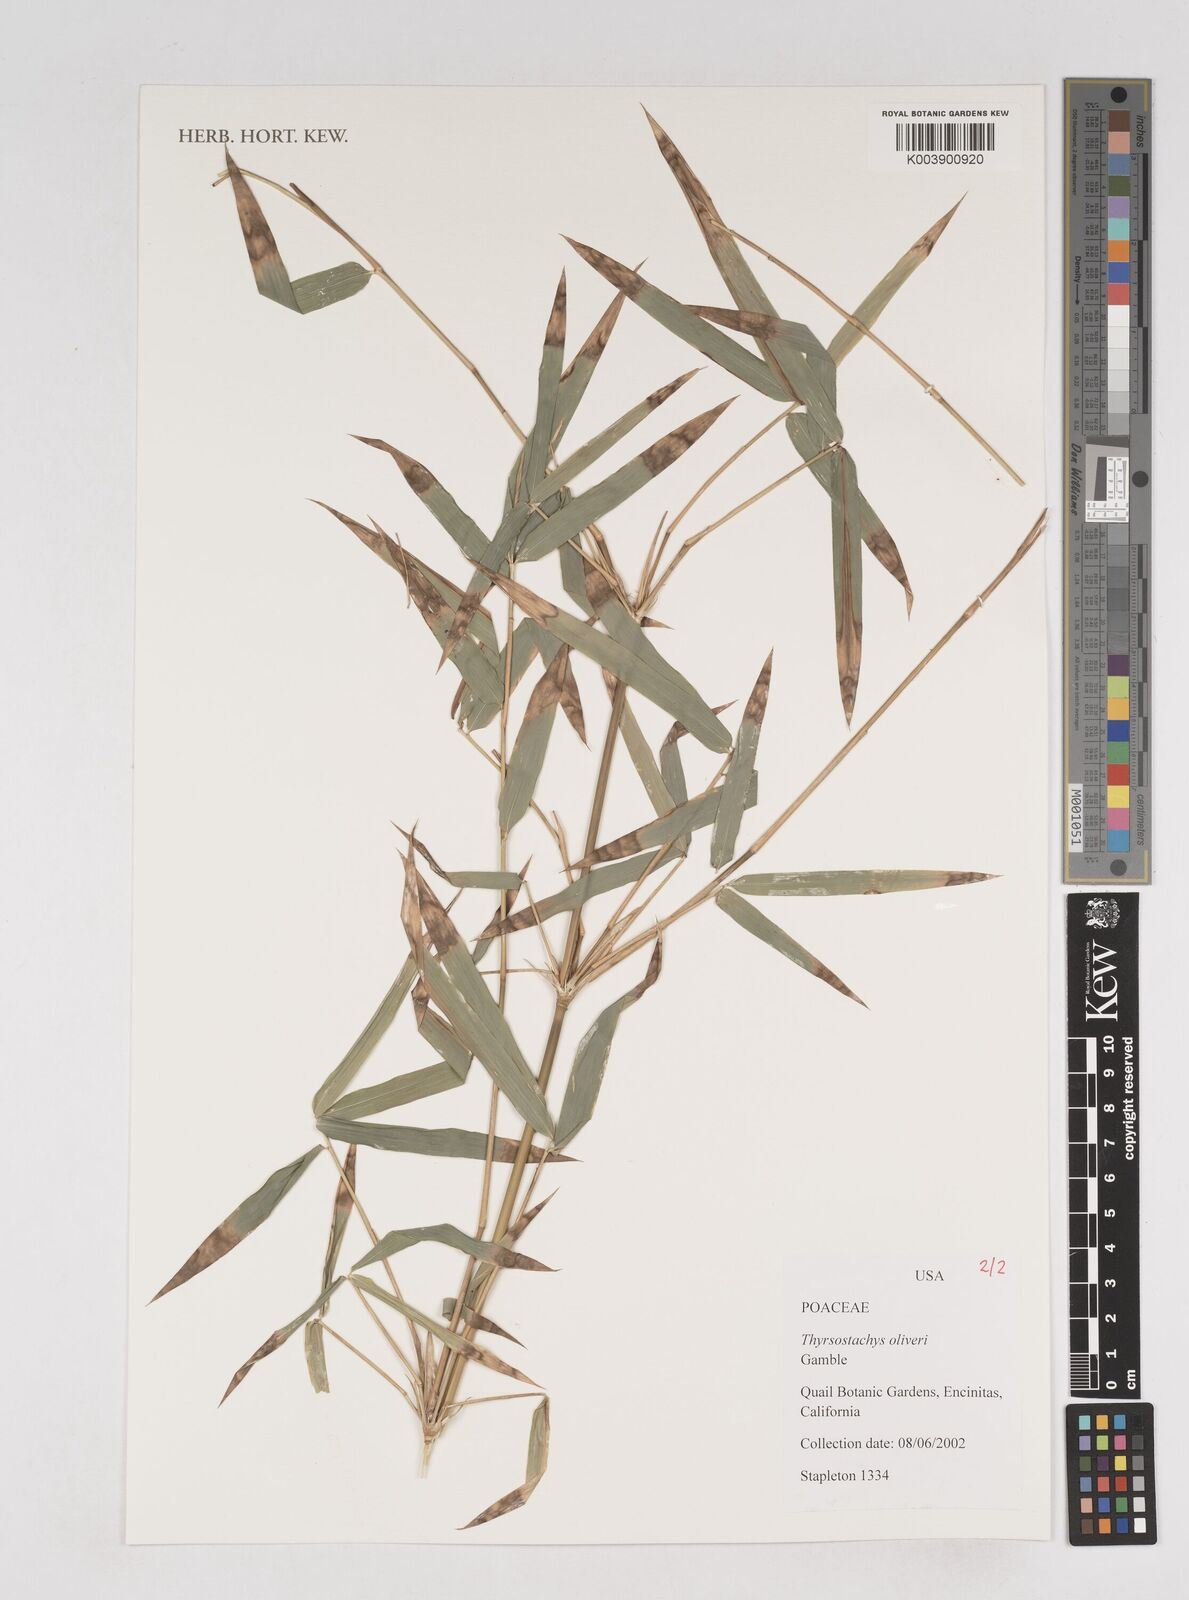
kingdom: Plantae
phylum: Tracheophyta
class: Liliopsida
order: Poales
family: Poaceae
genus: Thyrsostachys
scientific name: Thyrsostachys oliveri
